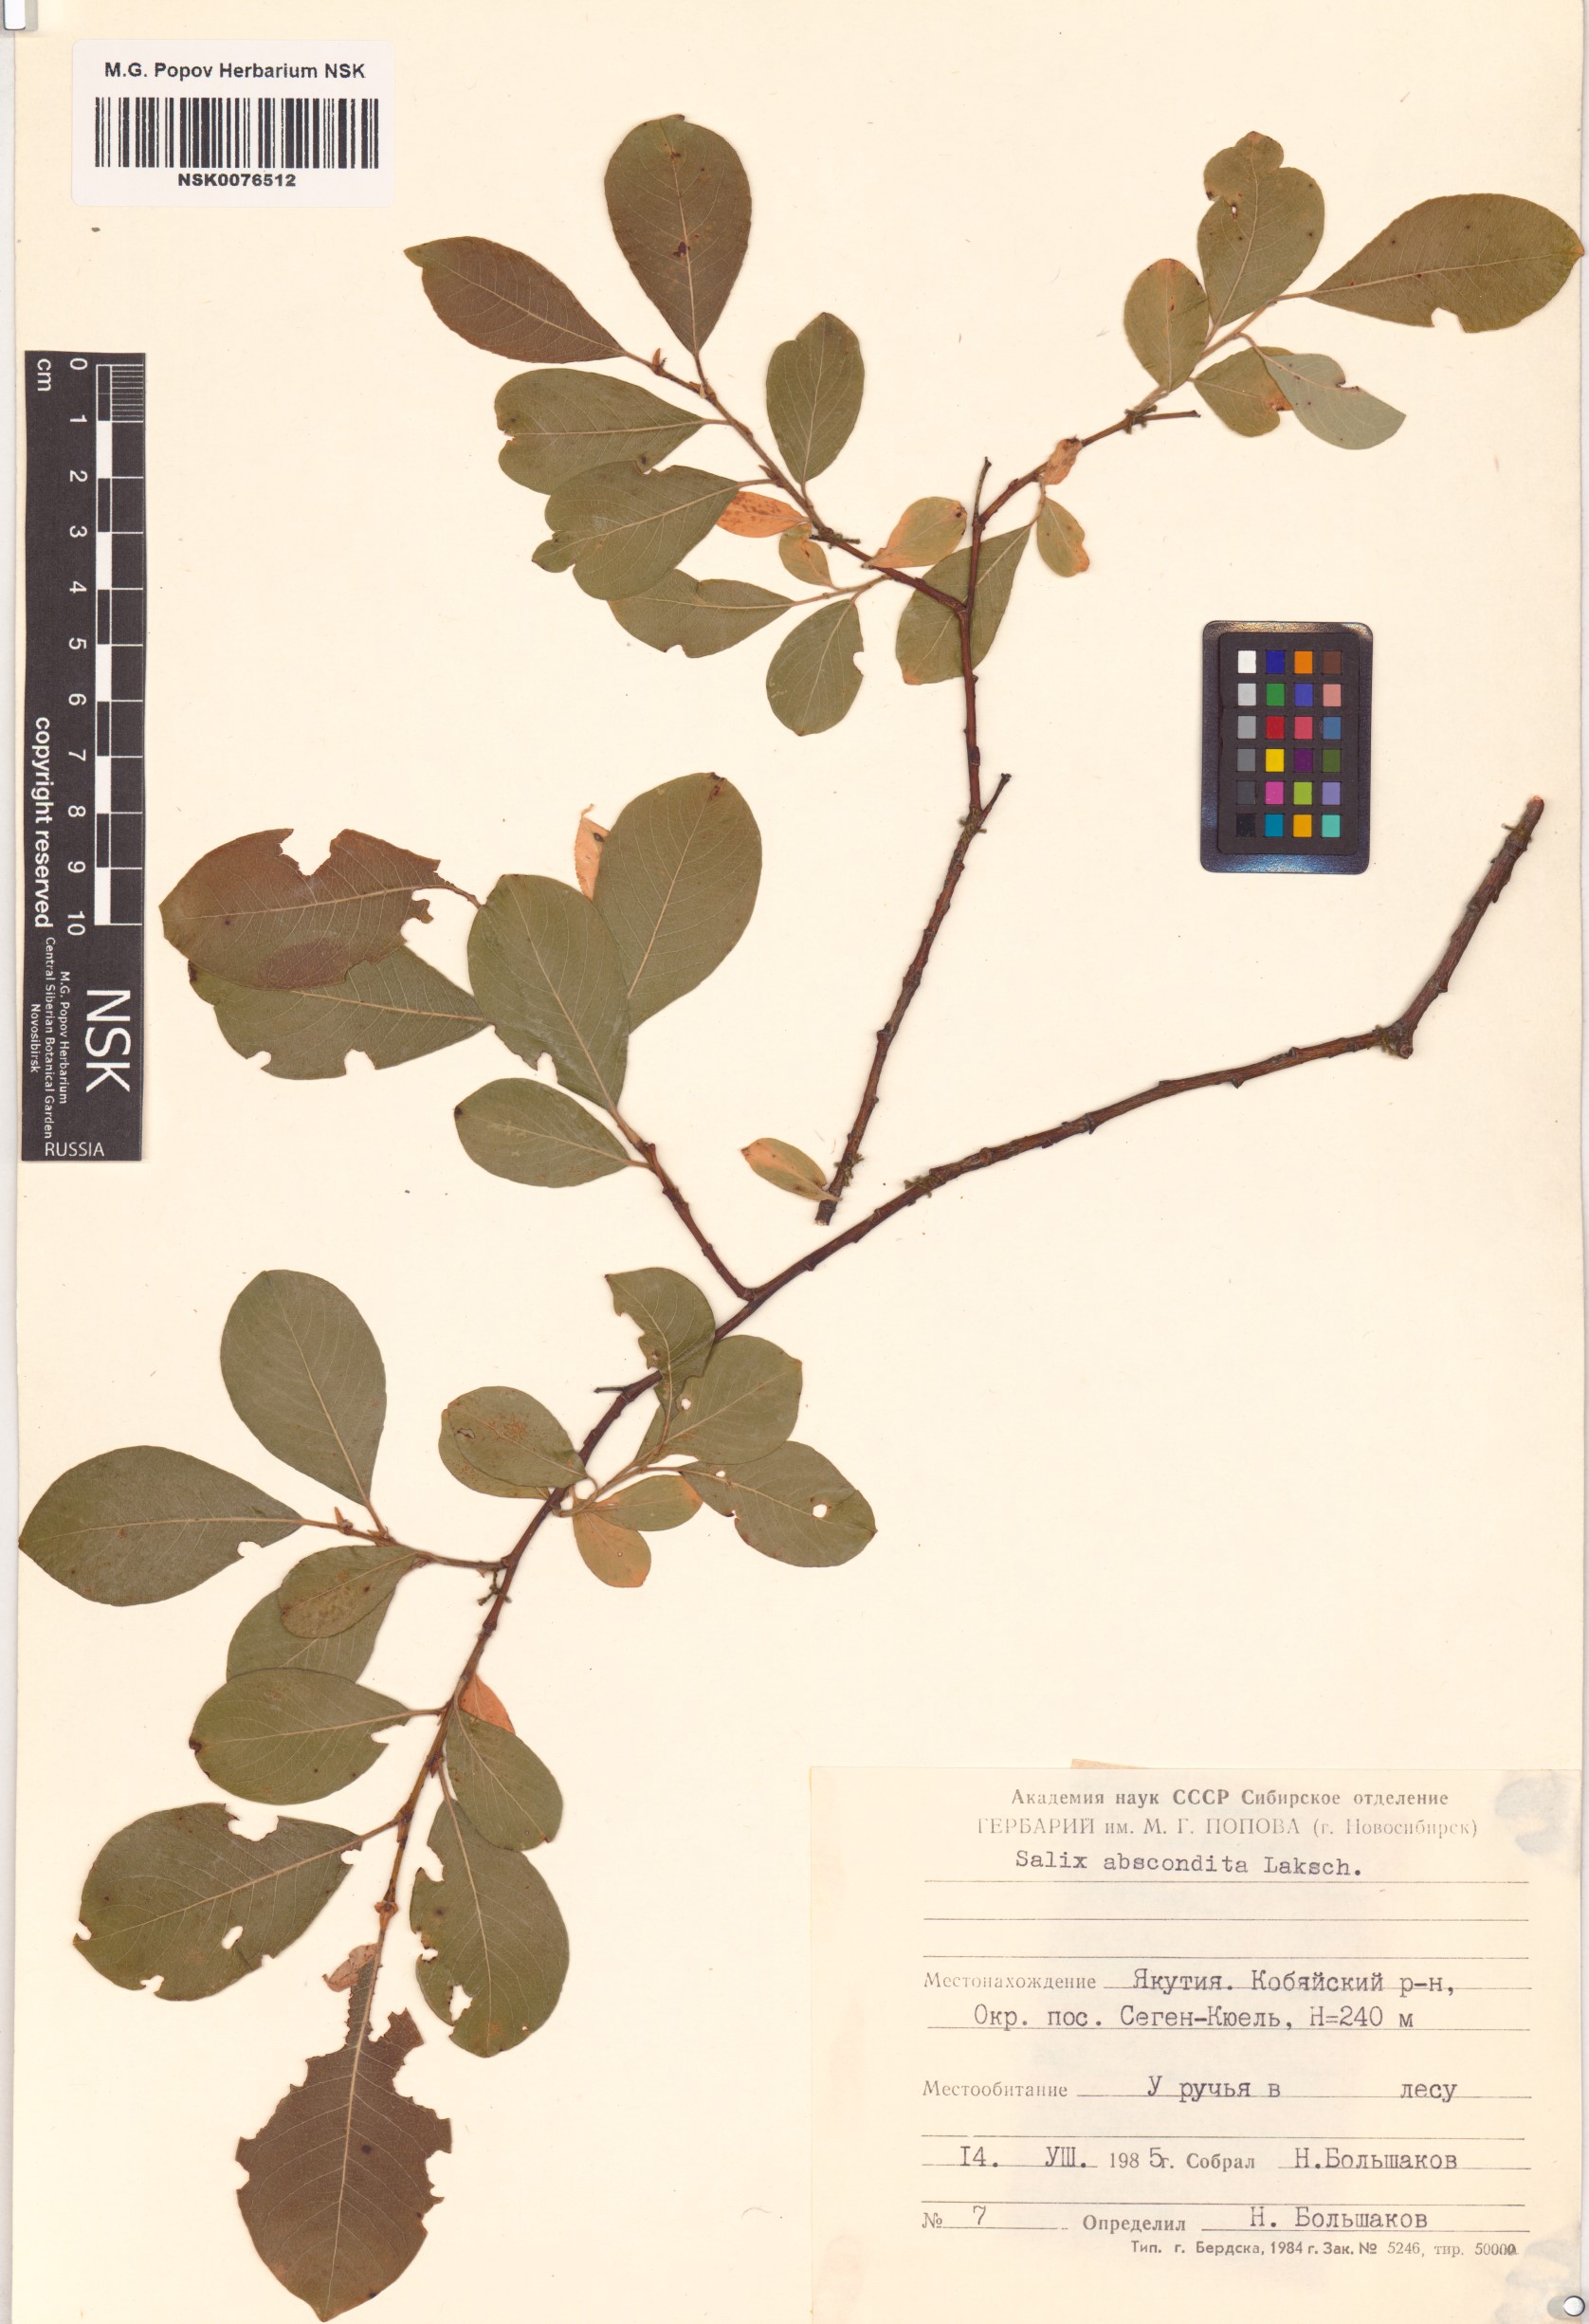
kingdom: Plantae
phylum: Tracheophyta
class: Magnoliopsida
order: Malpighiales
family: Salicaceae
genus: Salix
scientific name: Salix abscondita
